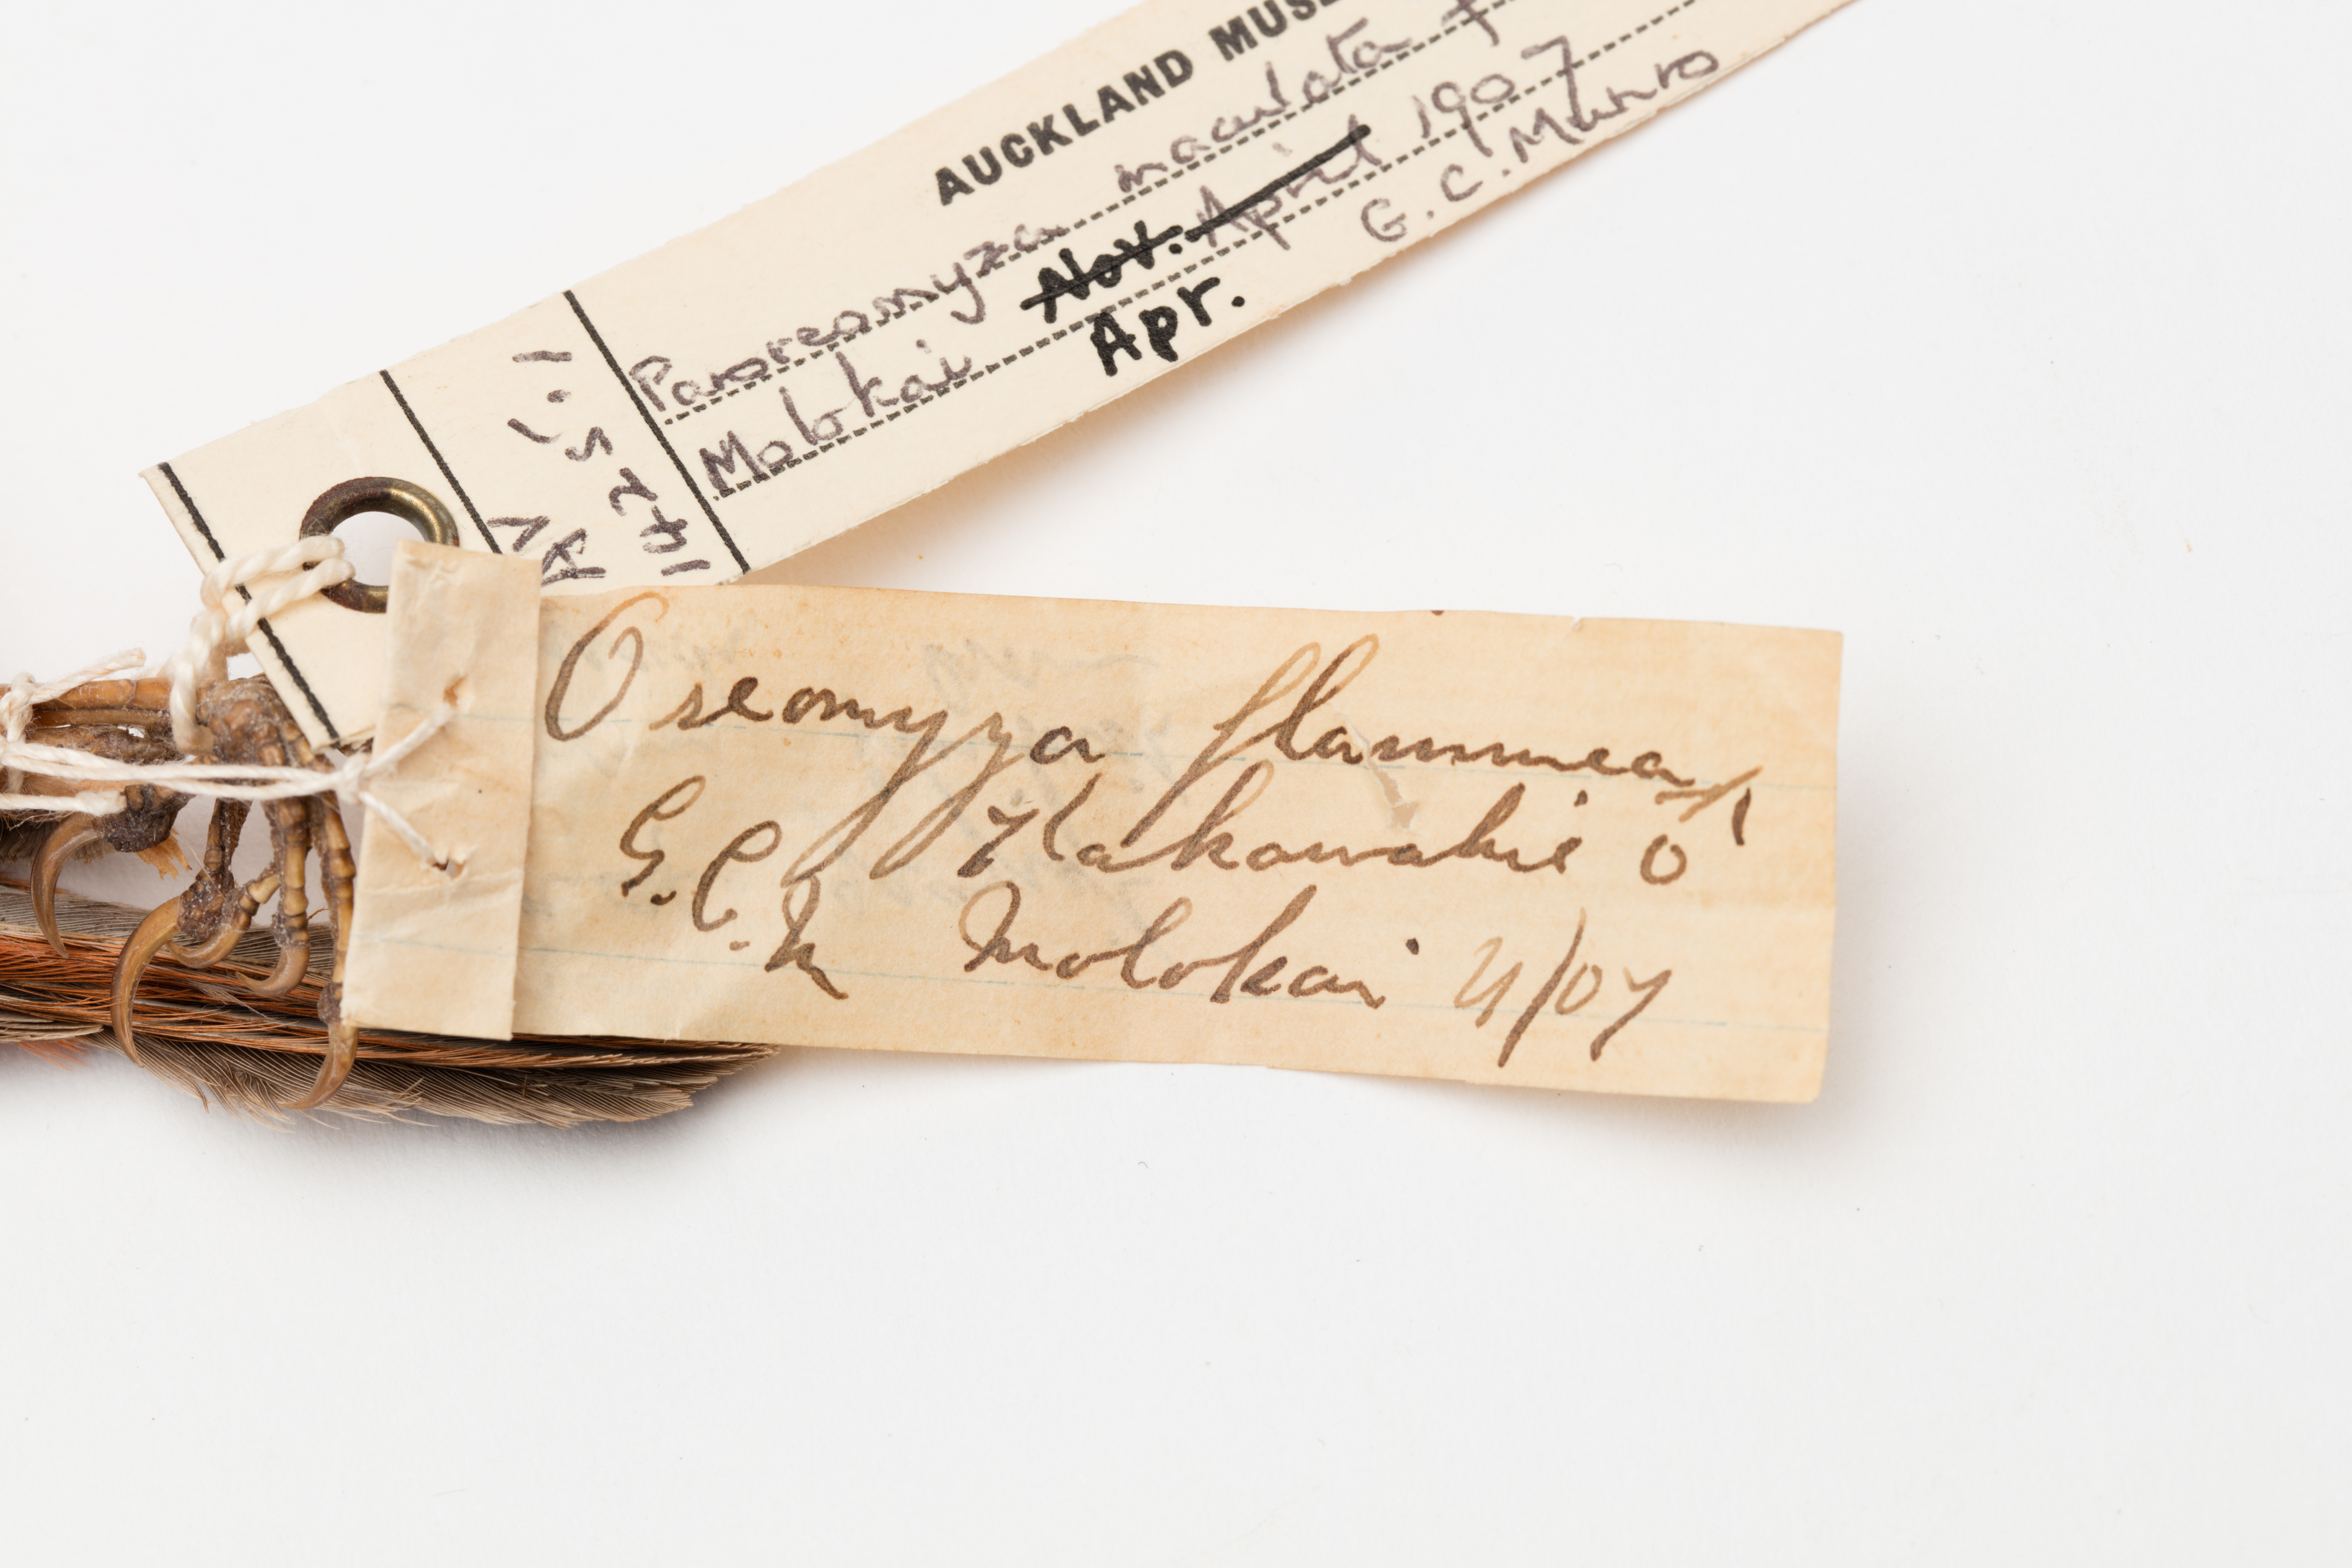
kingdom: Animalia
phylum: Chordata
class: Aves
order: Passeriformes
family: Fringillidae
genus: Paroreomyza
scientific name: Paroreomyza flammea
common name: Kakawahie
